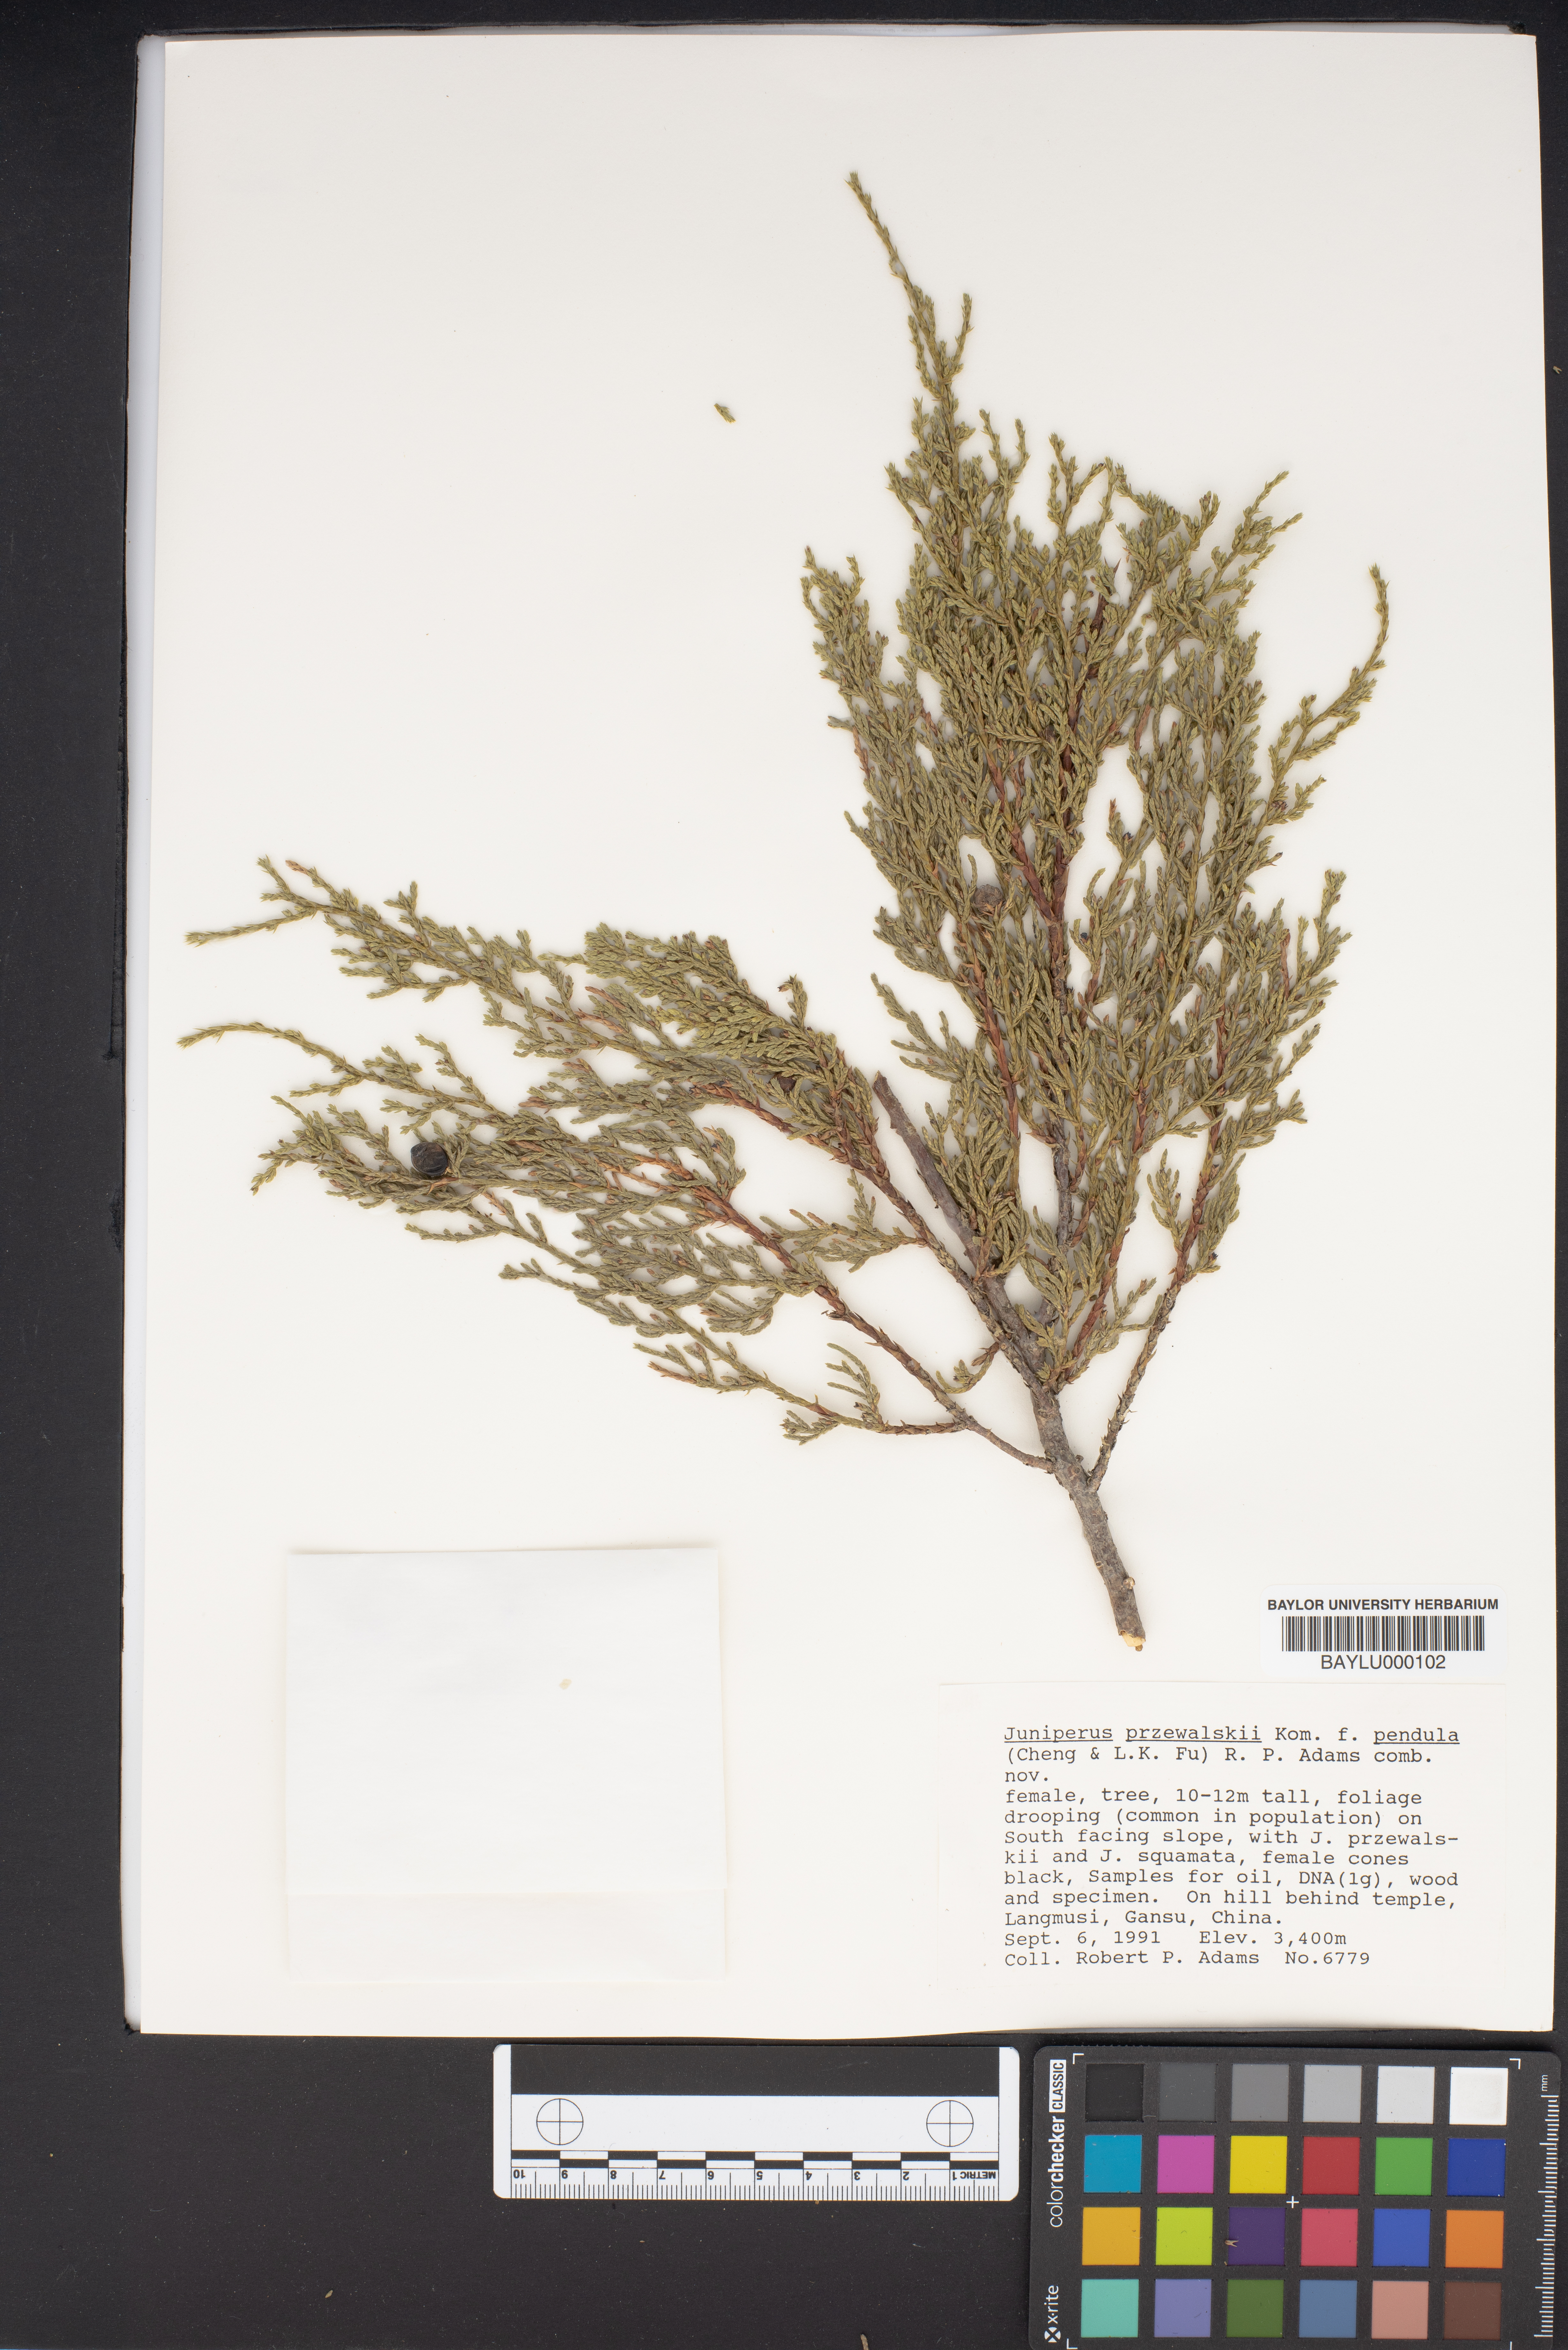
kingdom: Plantae
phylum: Tracheophyta
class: Pinopsida
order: Pinales
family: Cupressaceae
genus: Juniperus
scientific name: Juniperus przewalskii
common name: Przewalsi juniper
